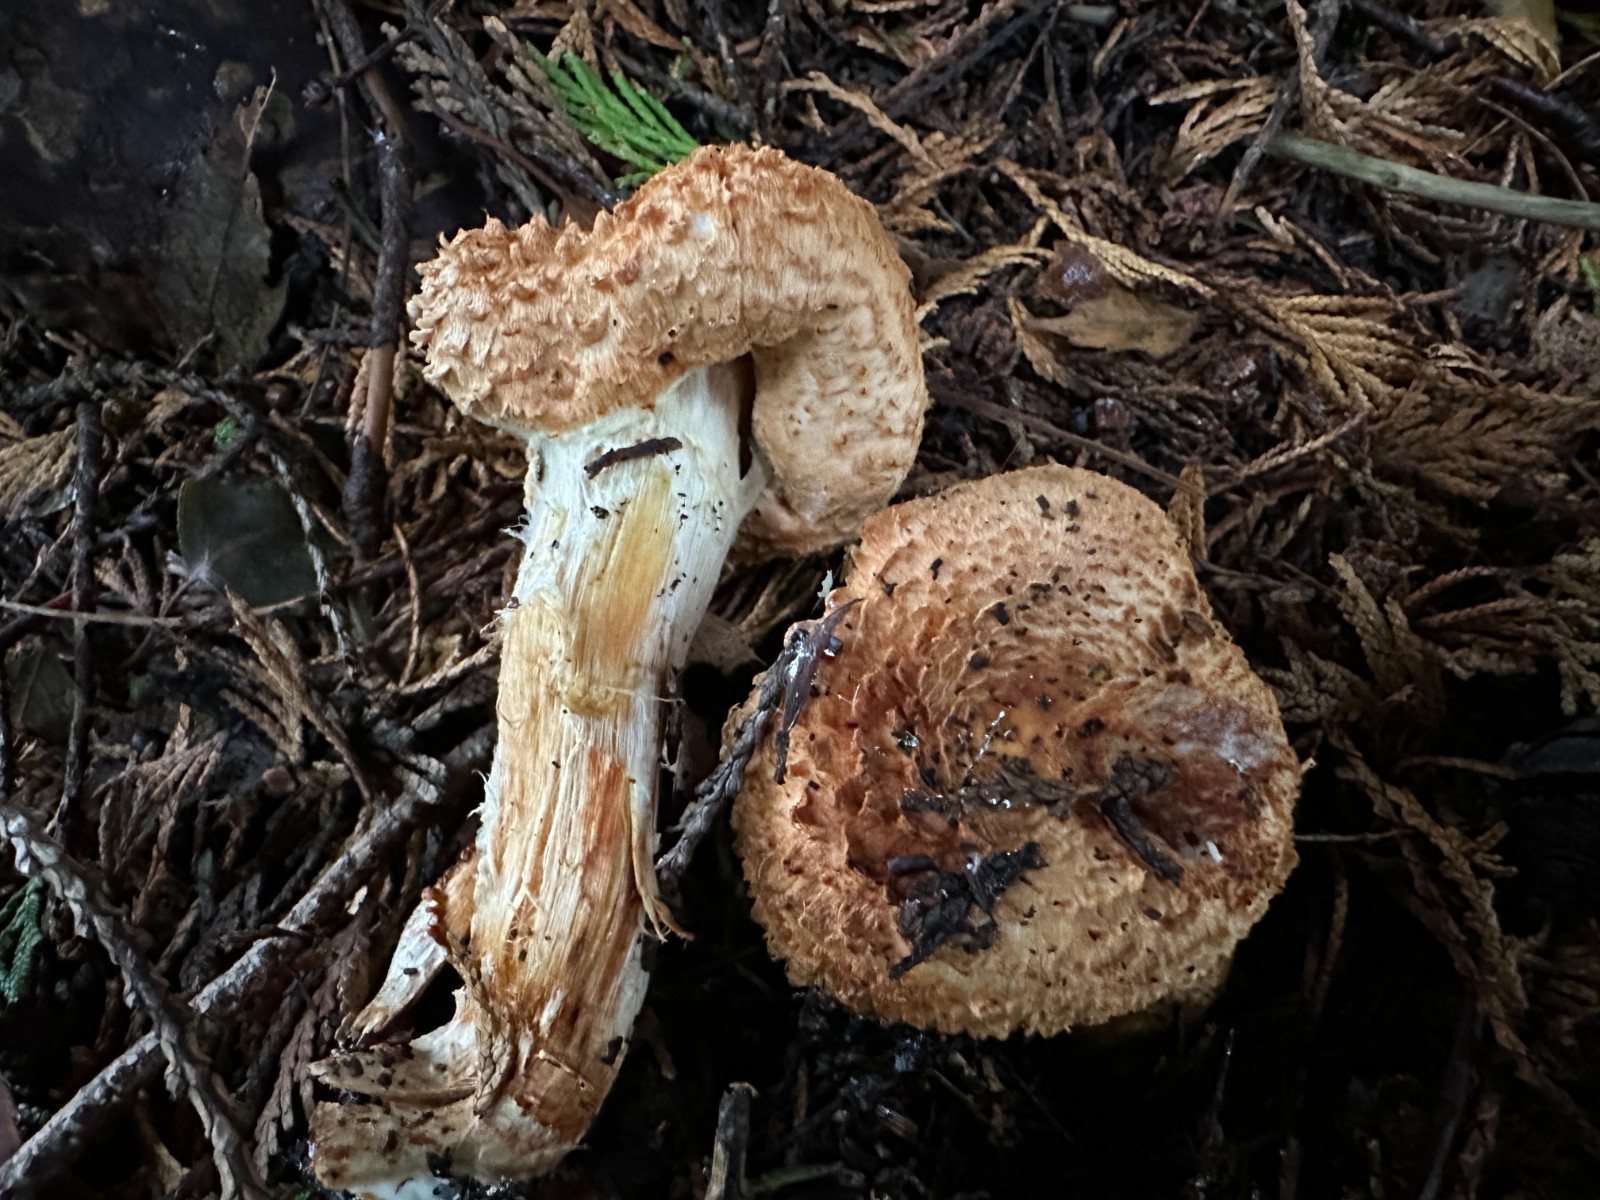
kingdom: Fungi
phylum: Basidiomycota
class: Agaricomycetes
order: Agaricales
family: Agaricaceae
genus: Lepiota
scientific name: Lepiota ochraceofulva
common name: sødtduftende parasolhat
